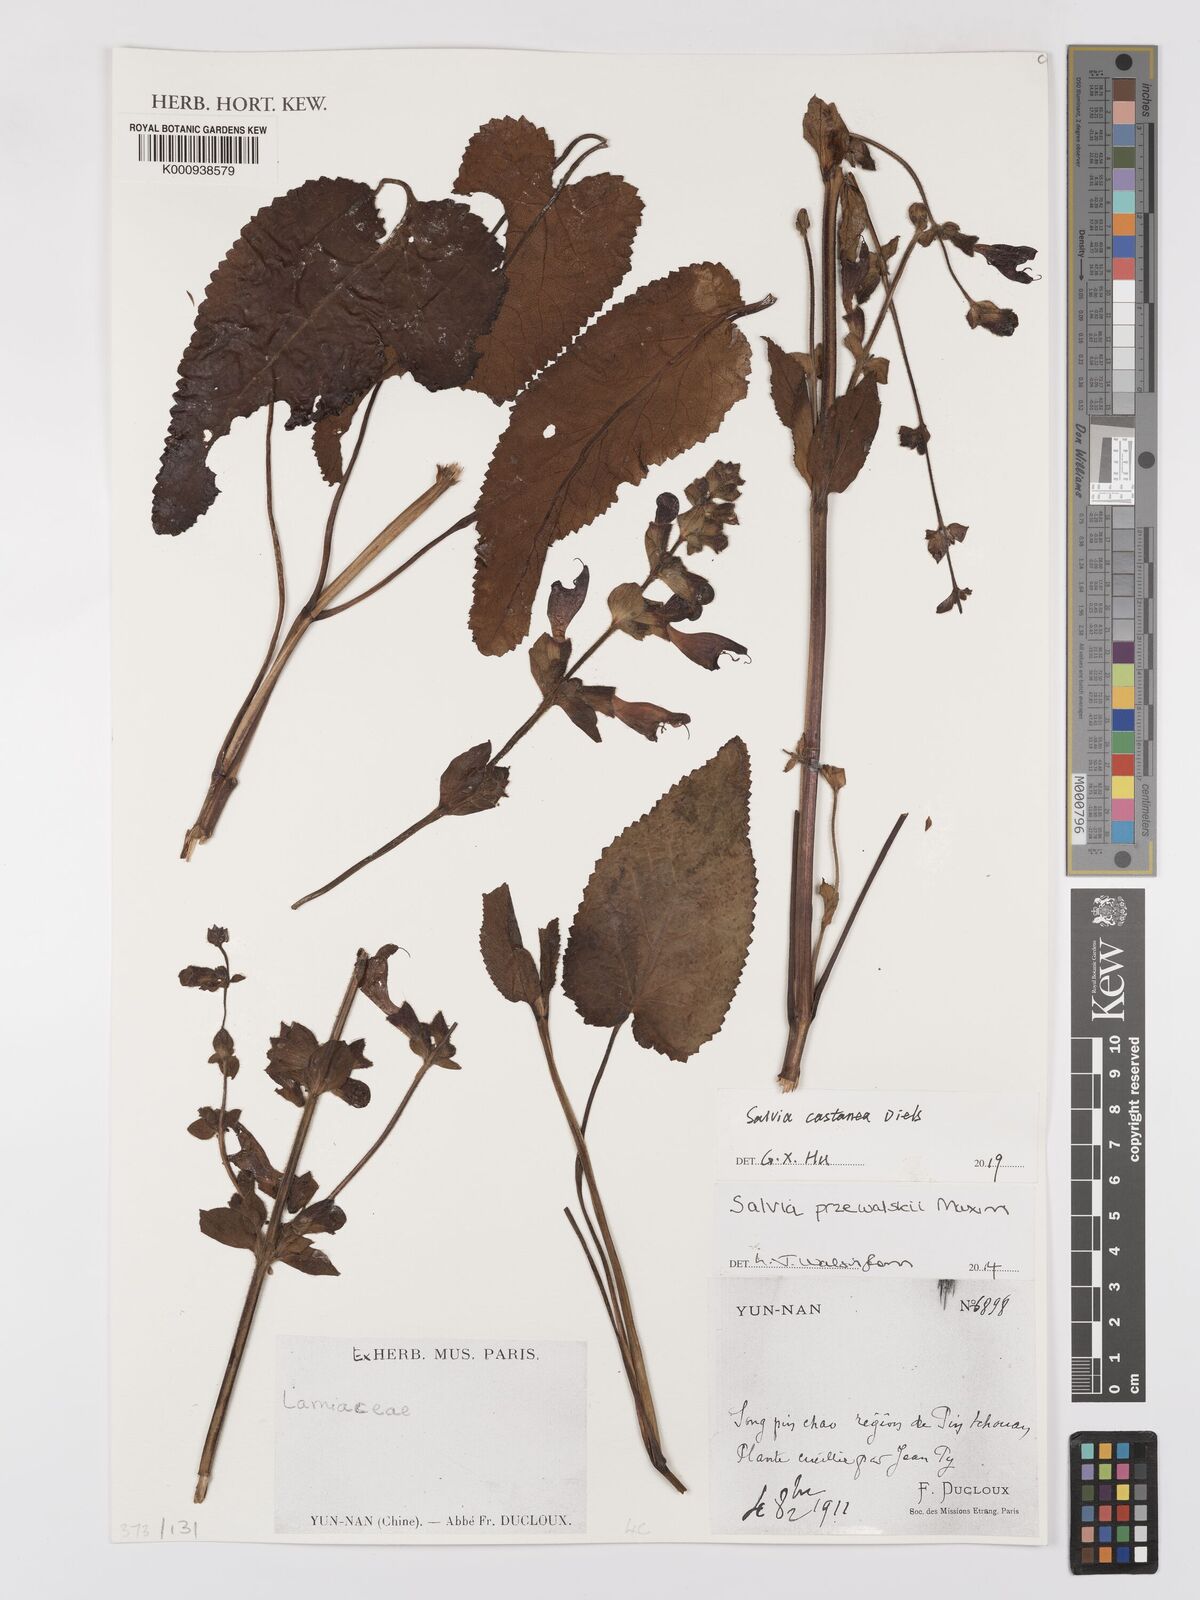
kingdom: Plantae
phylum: Tracheophyta
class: Magnoliopsida
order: Lamiales
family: Lamiaceae
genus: Salvia
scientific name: Salvia castanea
